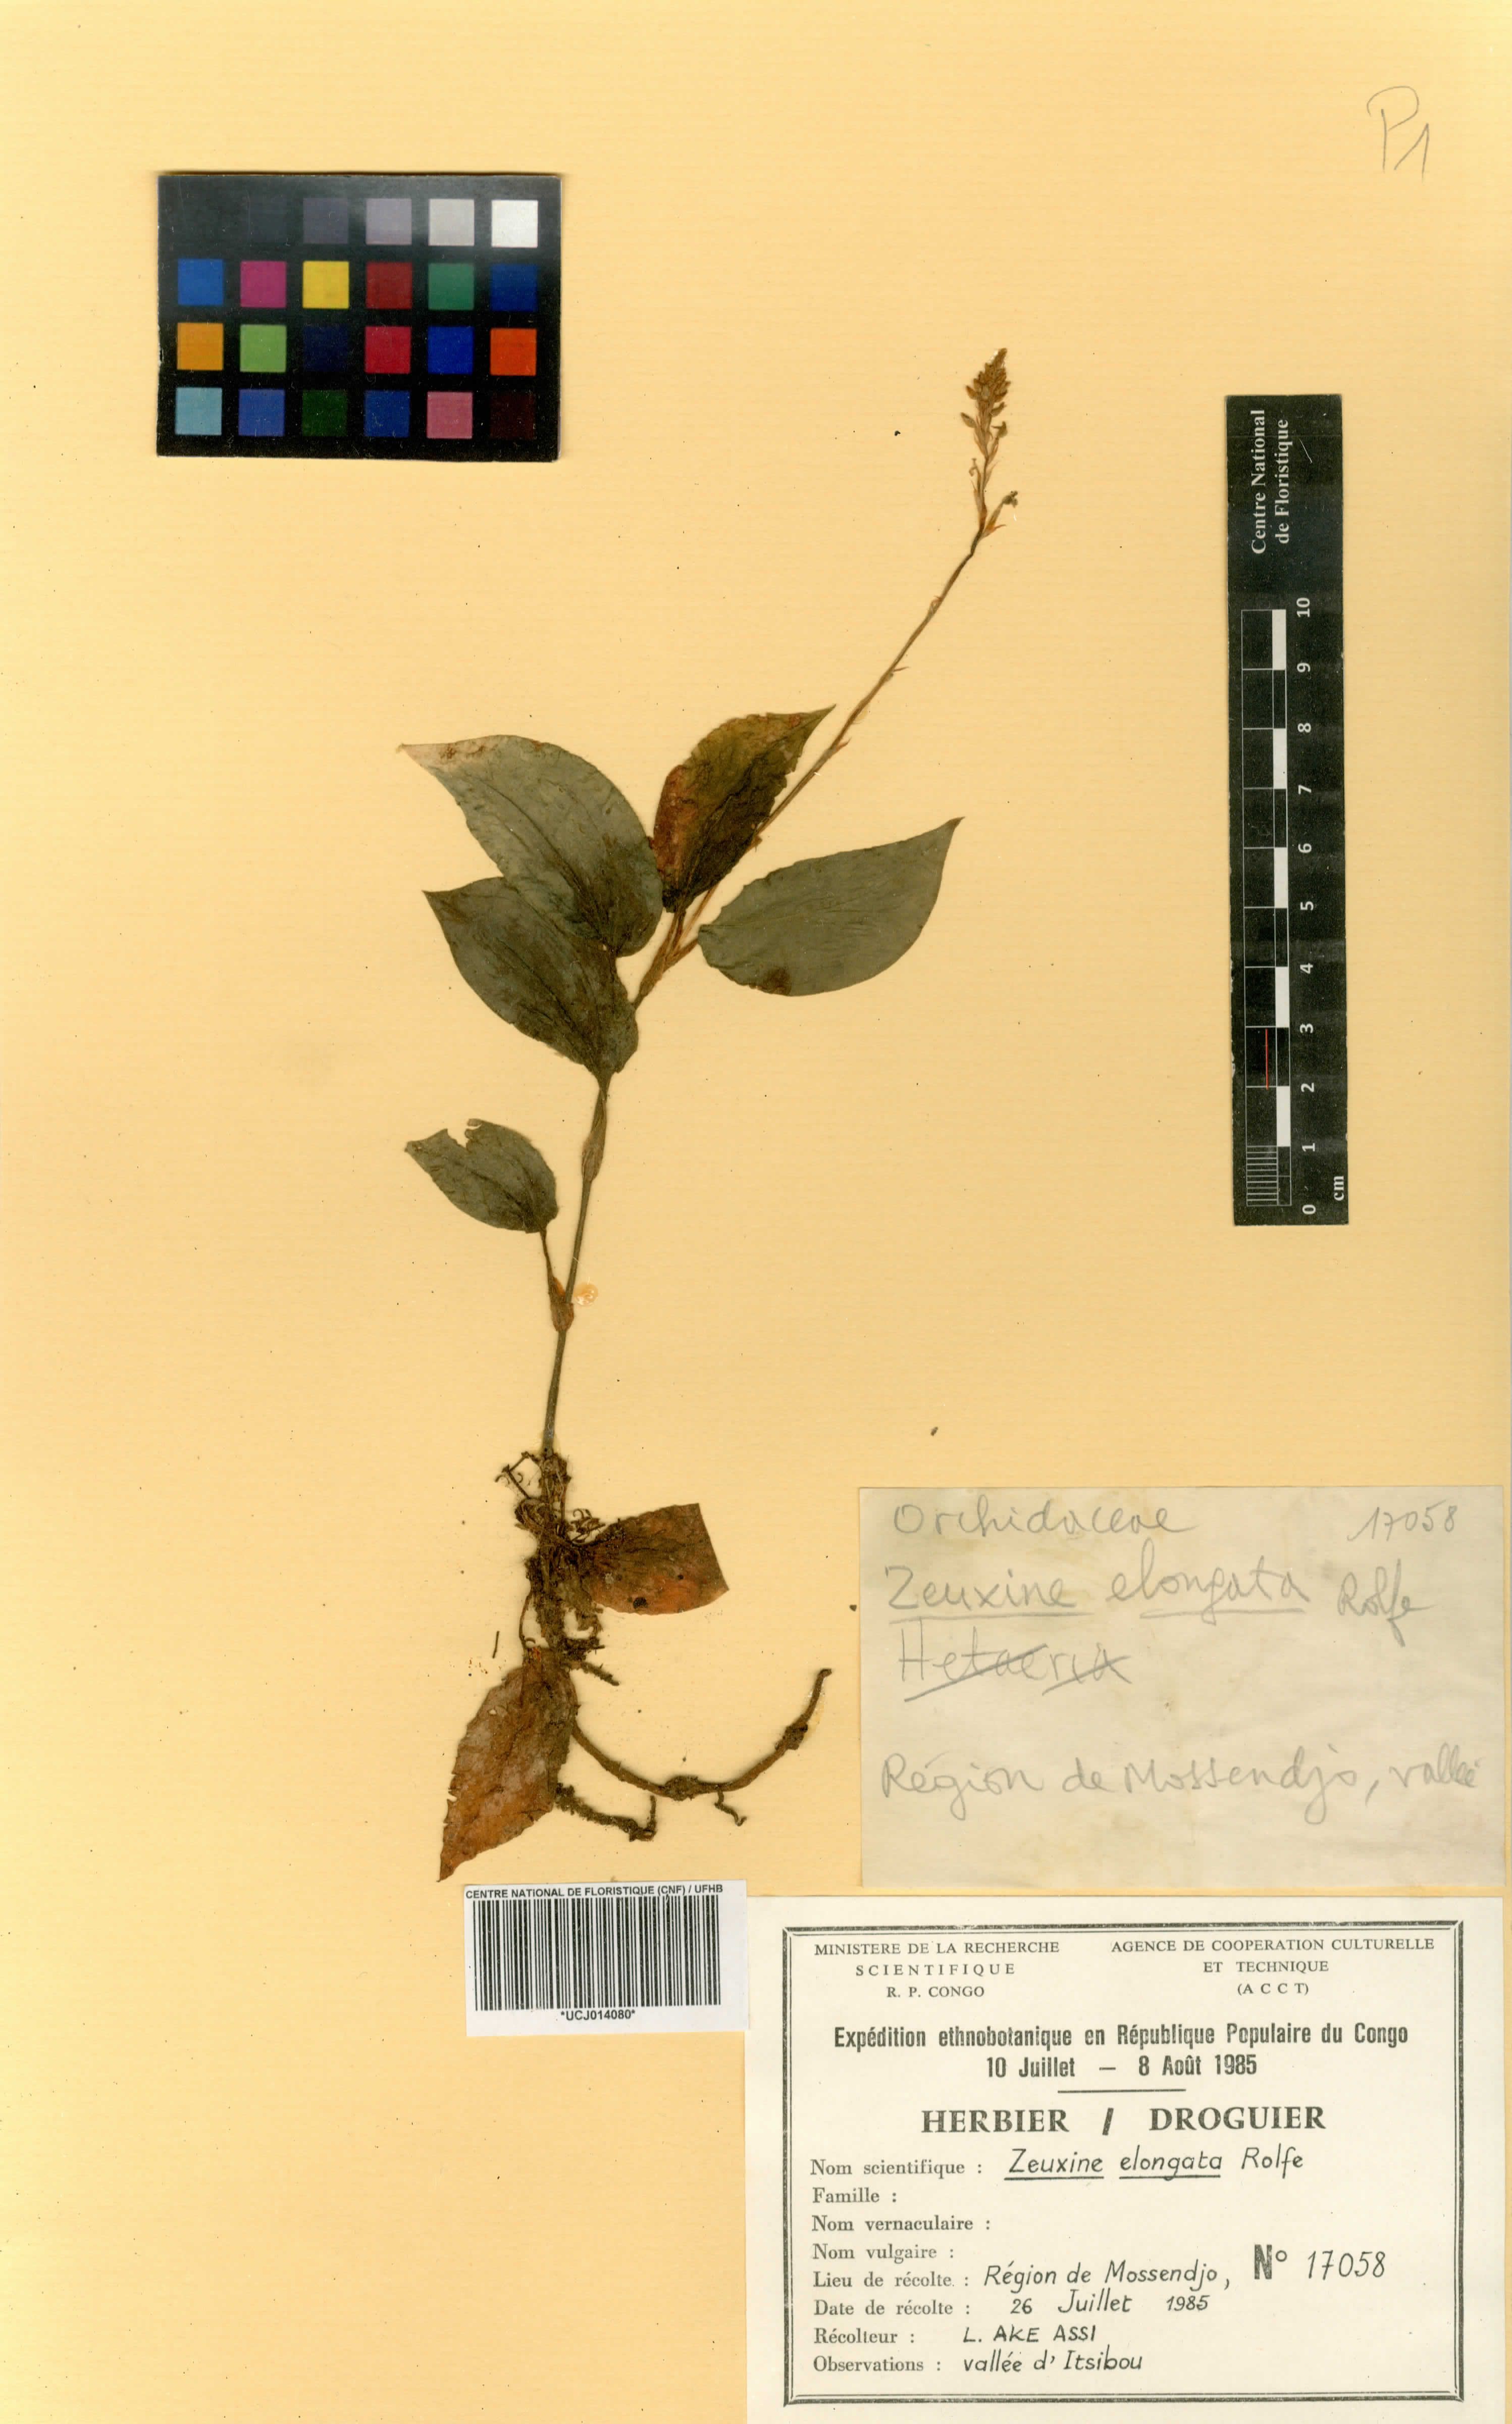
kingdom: Plantae
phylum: Tracheophyta
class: Liliopsida
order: Asparagales
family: Orchidaceae
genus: Zeuxine
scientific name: Zeuxine elongata
